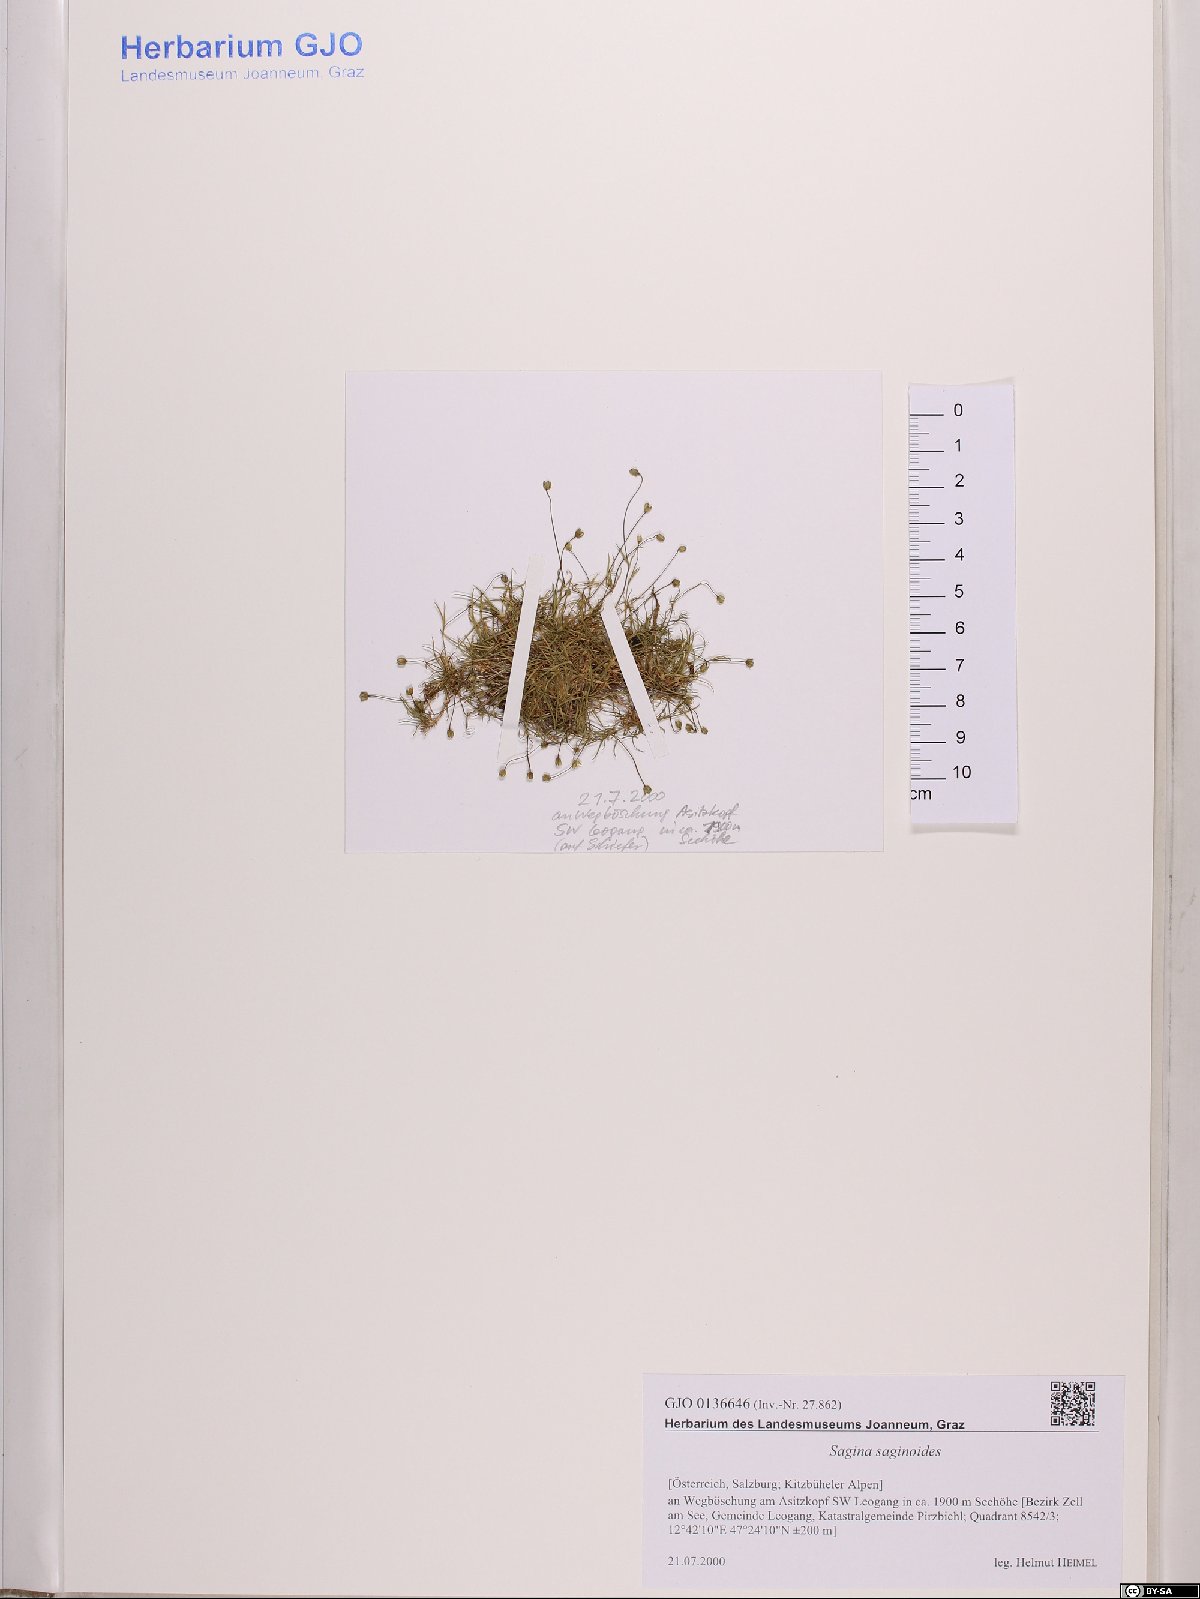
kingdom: Plantae
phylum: Tracheophyta
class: Magnoliopsida
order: Caryophyllales
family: Caryophyllaceae
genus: Sagina
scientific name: Sagina saginoides
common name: Alpine pearlwort
